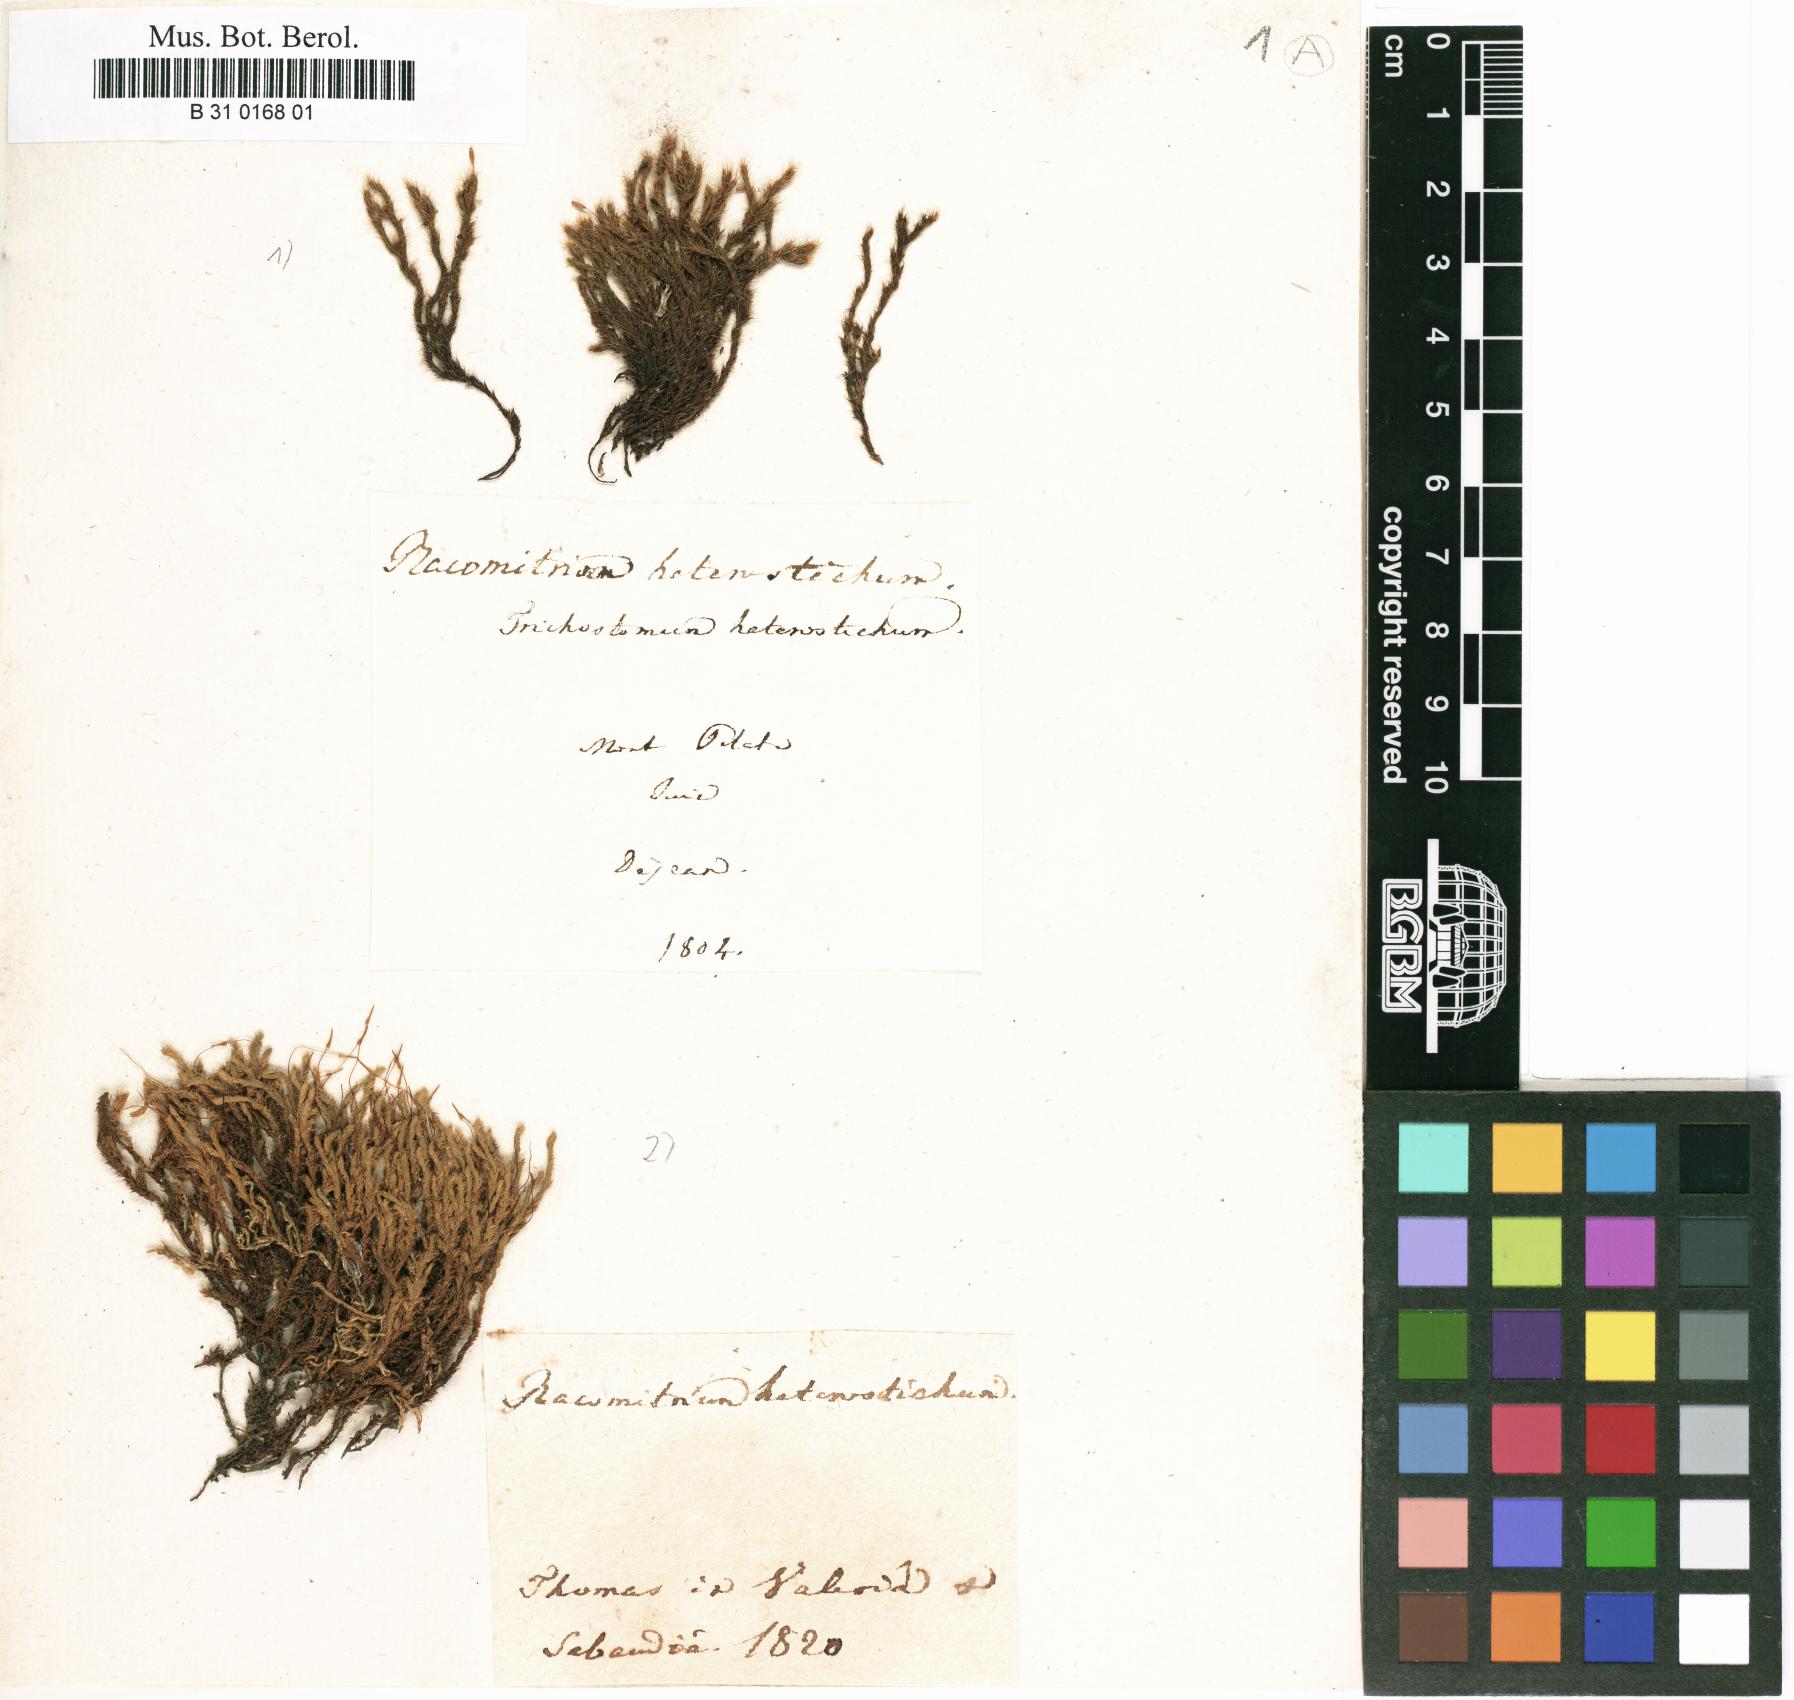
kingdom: Plantae
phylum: Bryophyta
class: Bryopsida
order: Grimmiales
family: Grimmiaceae
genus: Bucklandiella
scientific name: Bucklandiella heterosticha
